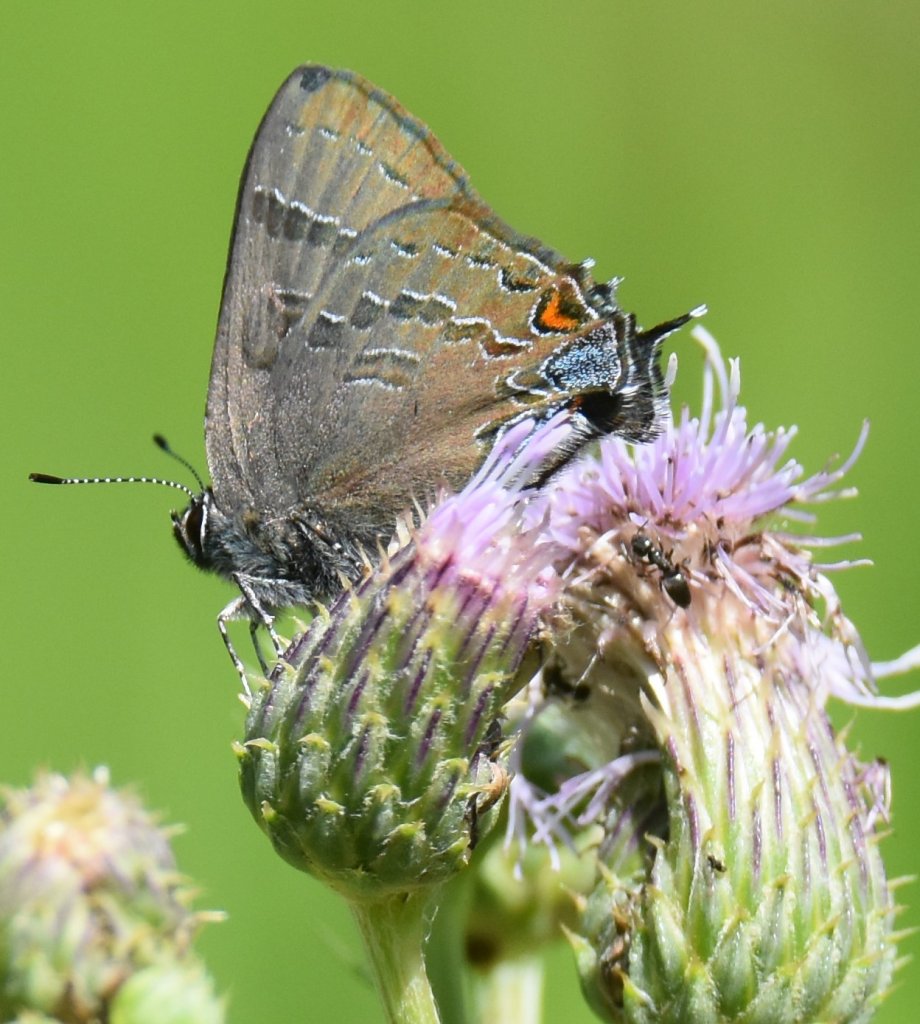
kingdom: Animalia
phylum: Arthropoda
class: Insecta
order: Lepidoptera
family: Lycaenidae
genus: Satyrium
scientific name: Satyrium
